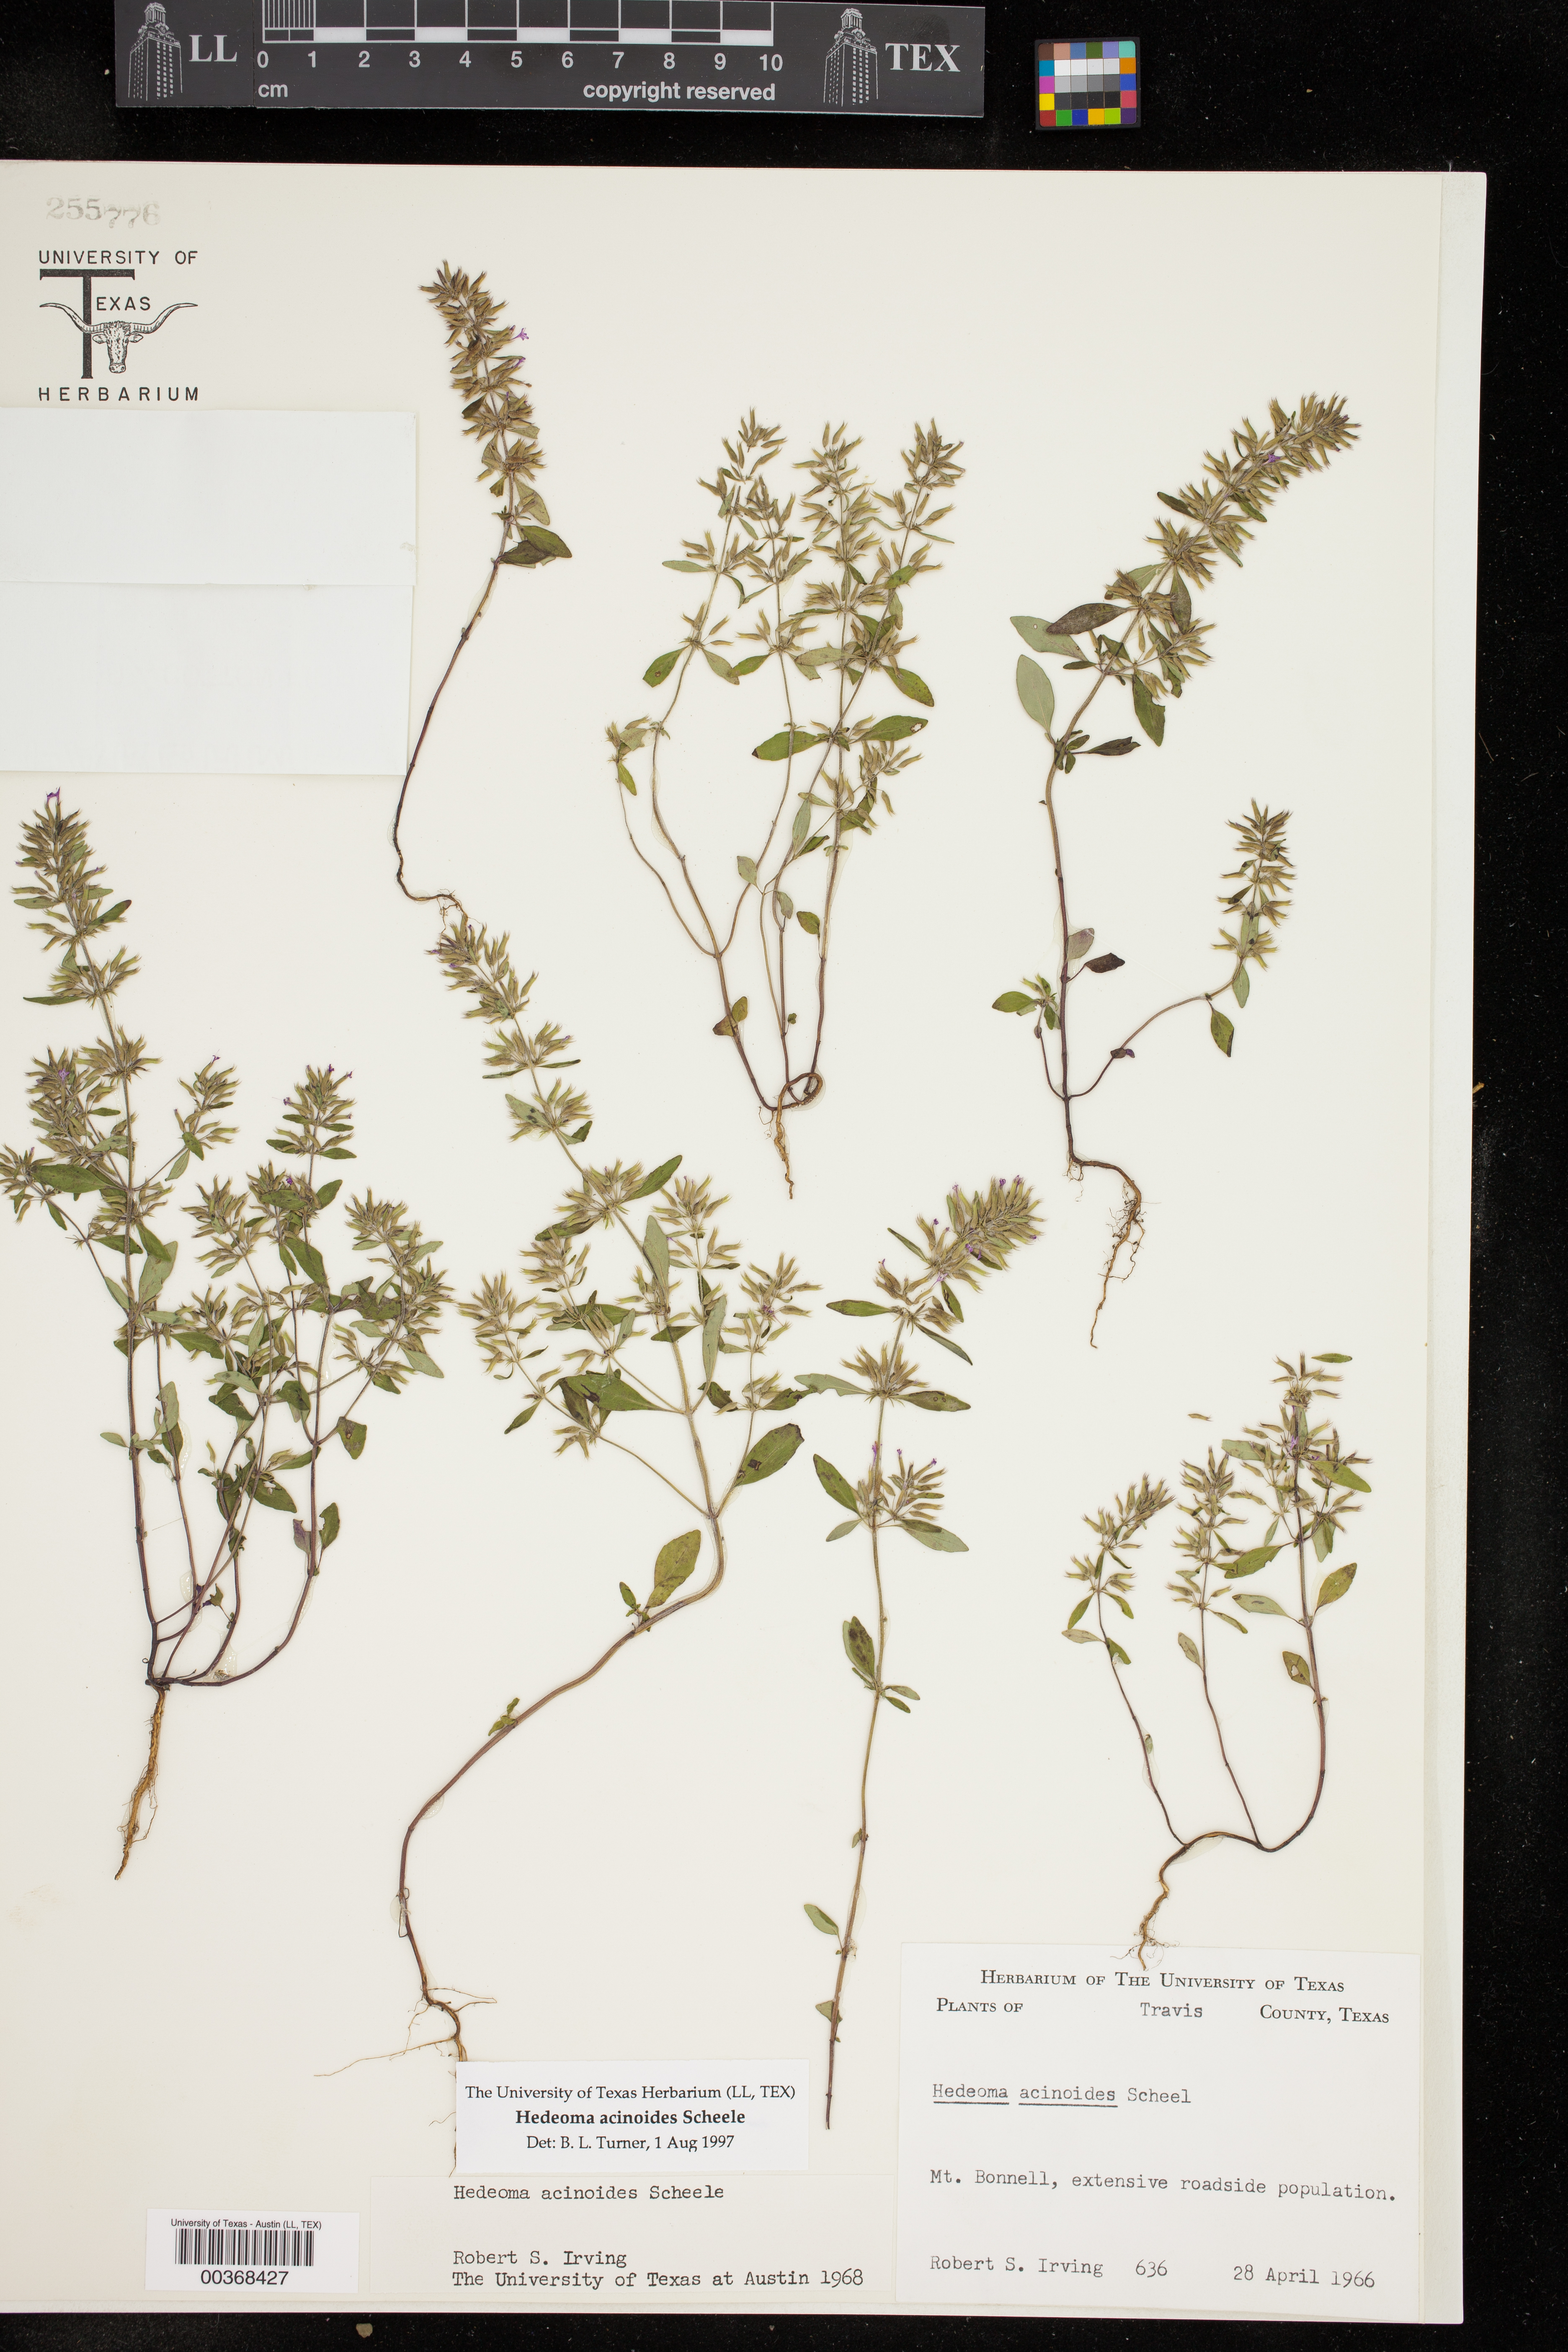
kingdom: Plantae
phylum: Tracheophyta
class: Magnoliopsida
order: Lamiales
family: Lamiaceae
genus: Hedeoma
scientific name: Hedeoma acinoides
